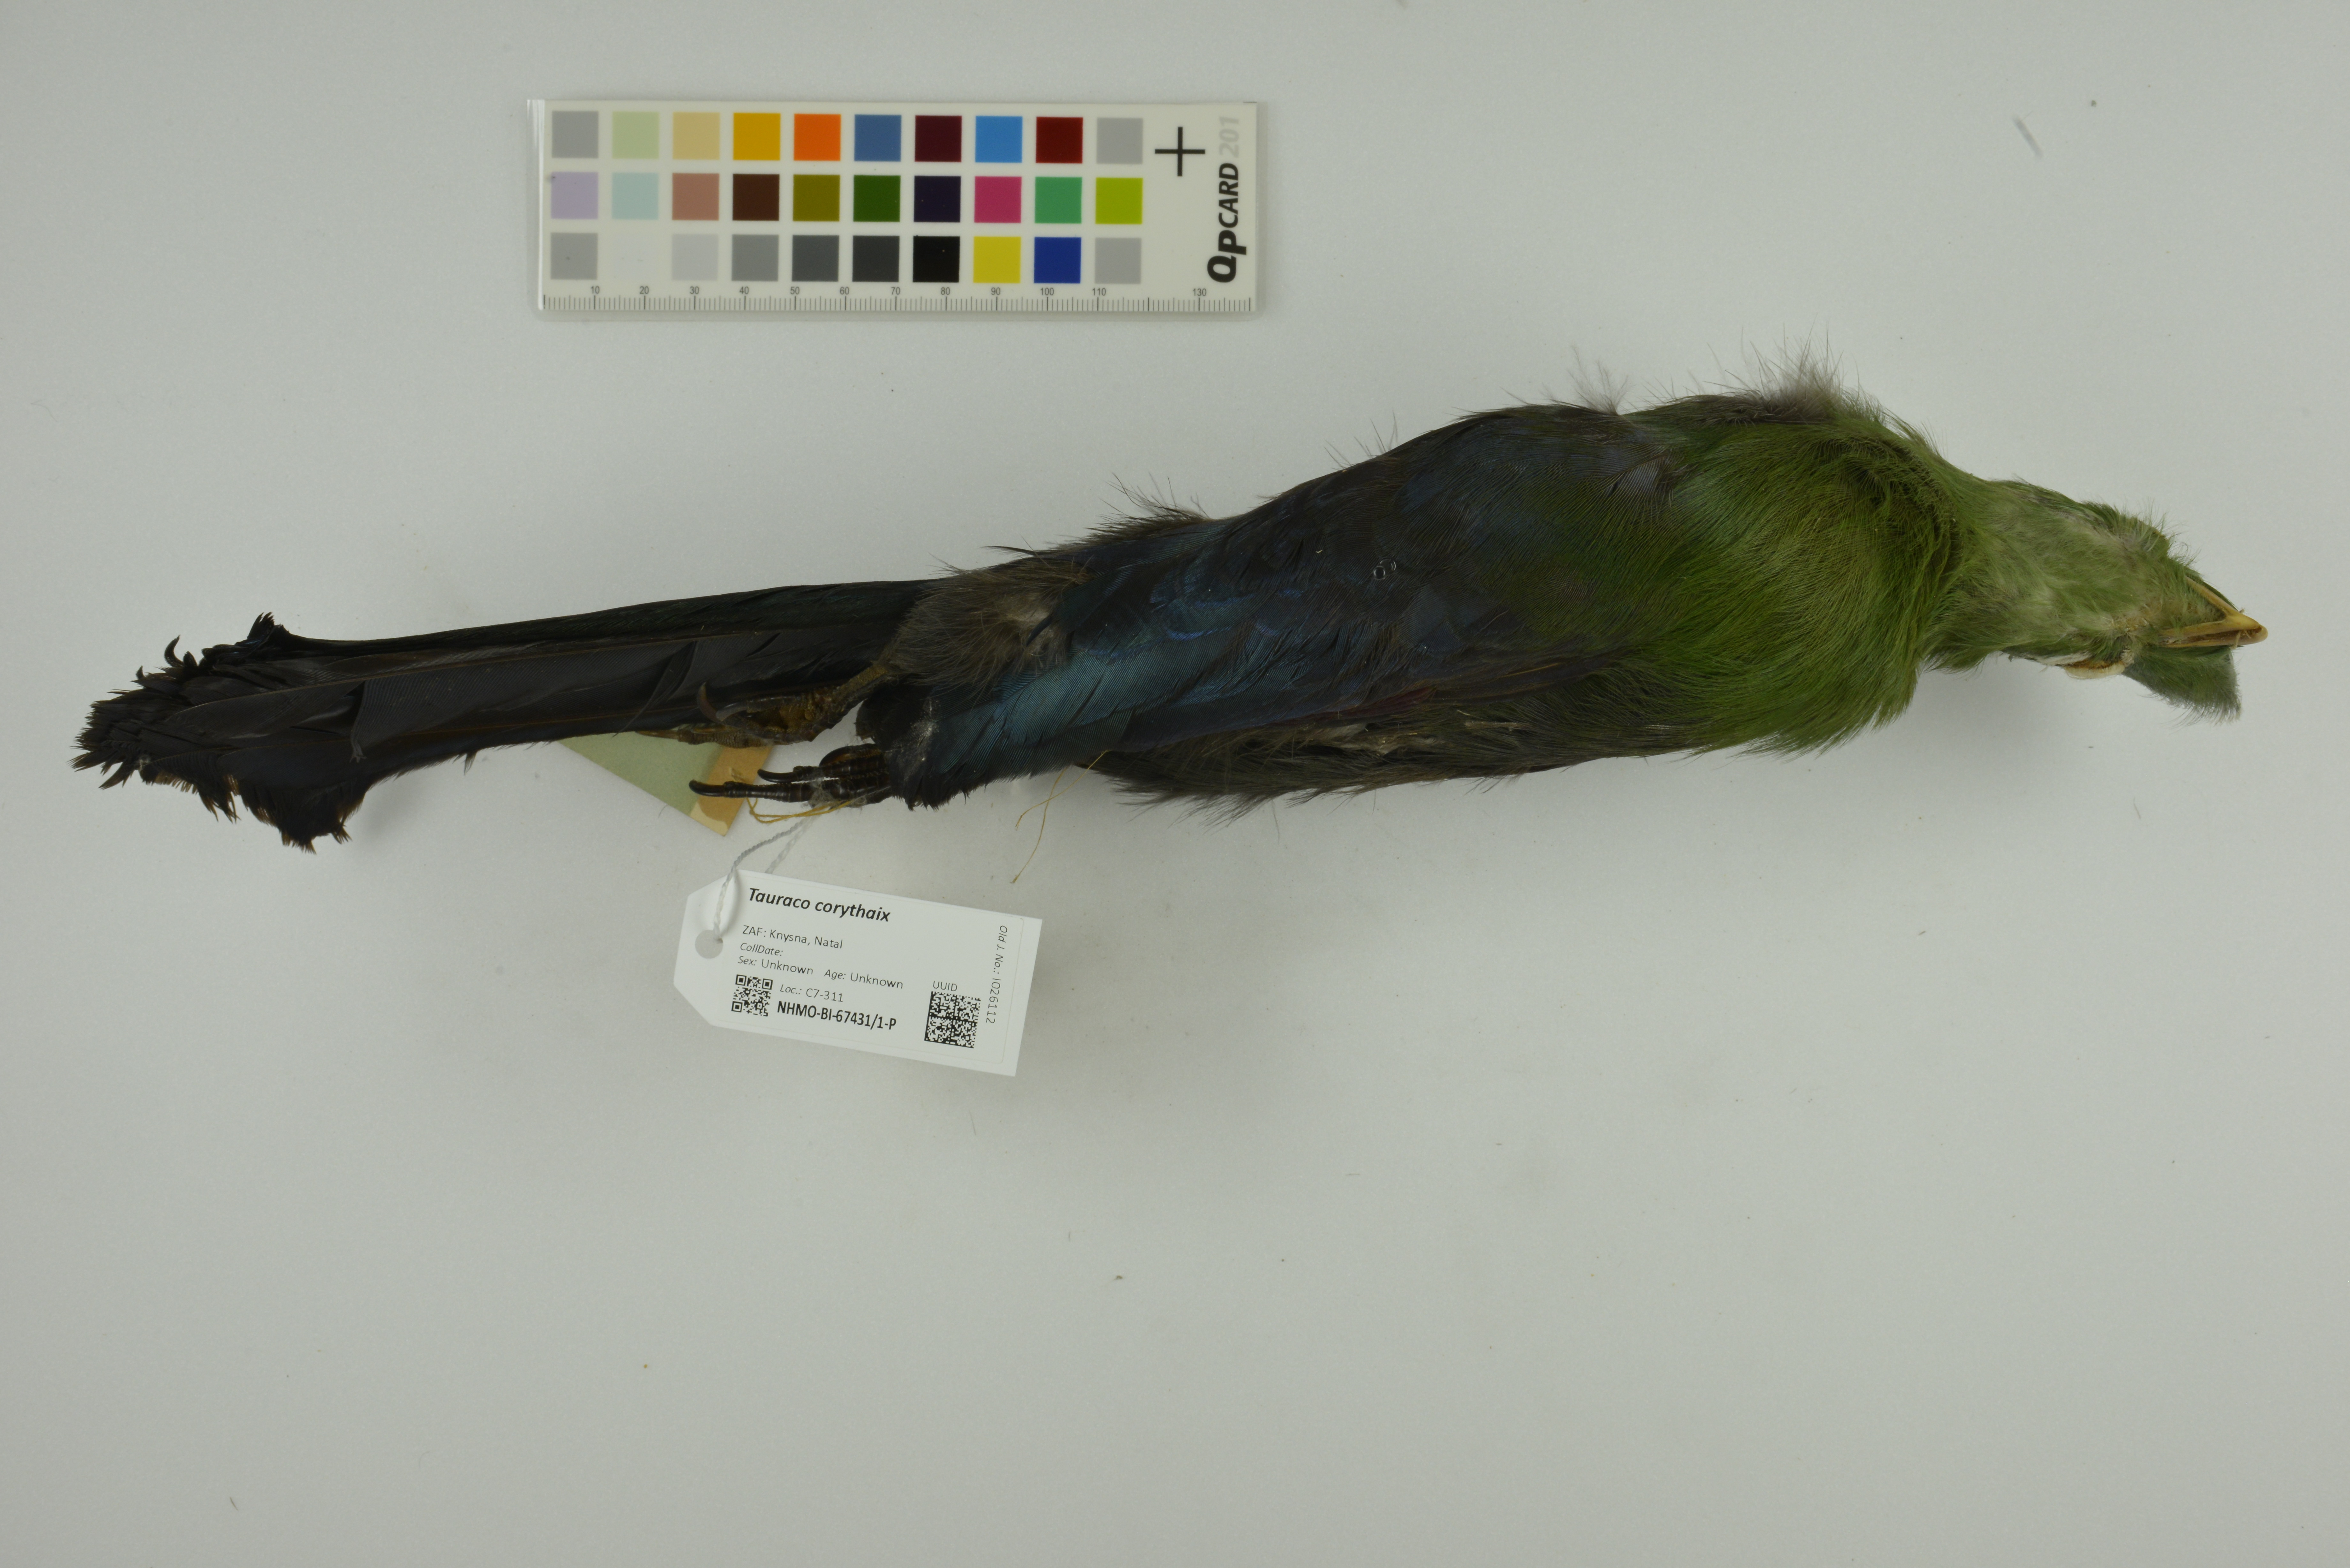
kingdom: Animalia
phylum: Chordata
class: Aves
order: Musophagiformes
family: Musophagidae
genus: Tauraco
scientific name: Tauraco corythaix
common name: Knysna turaco
